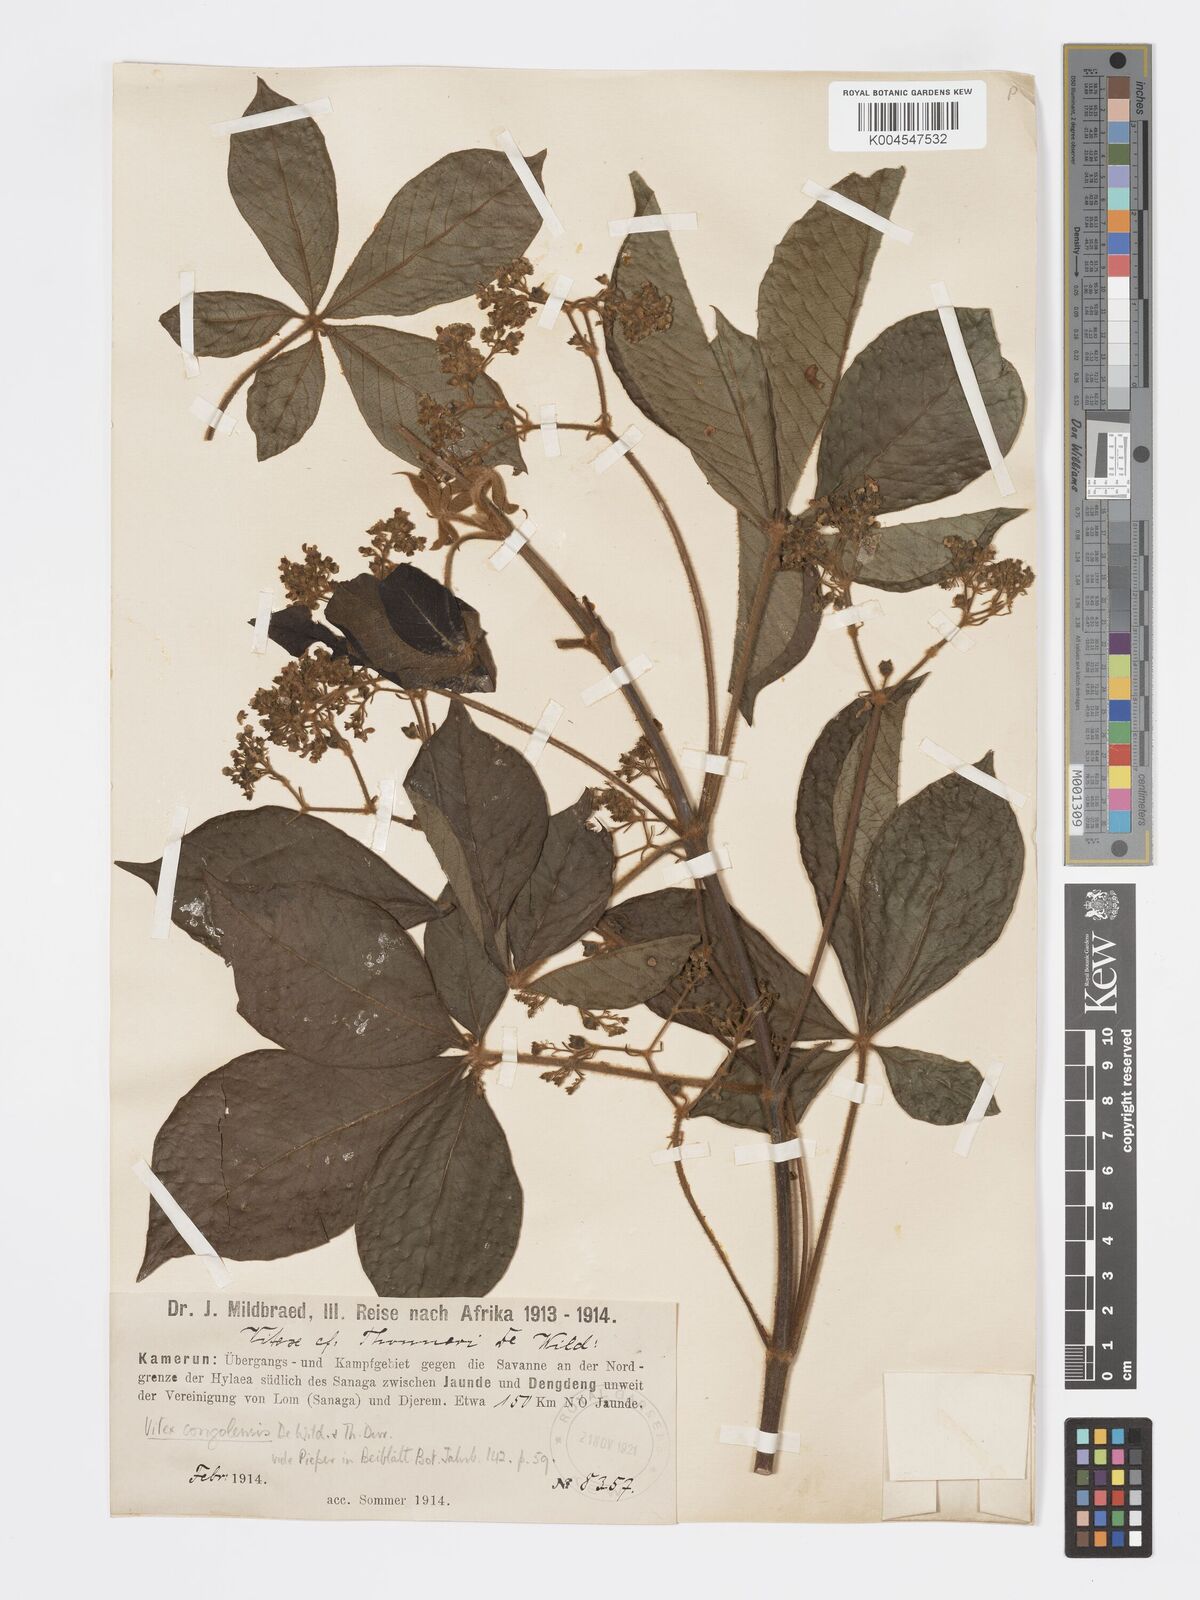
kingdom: Plantae
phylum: Tracheophyta
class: Magnoliopsida
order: Lamiales
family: Lamiaceae
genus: Vitex
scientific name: Vitex congolensis
